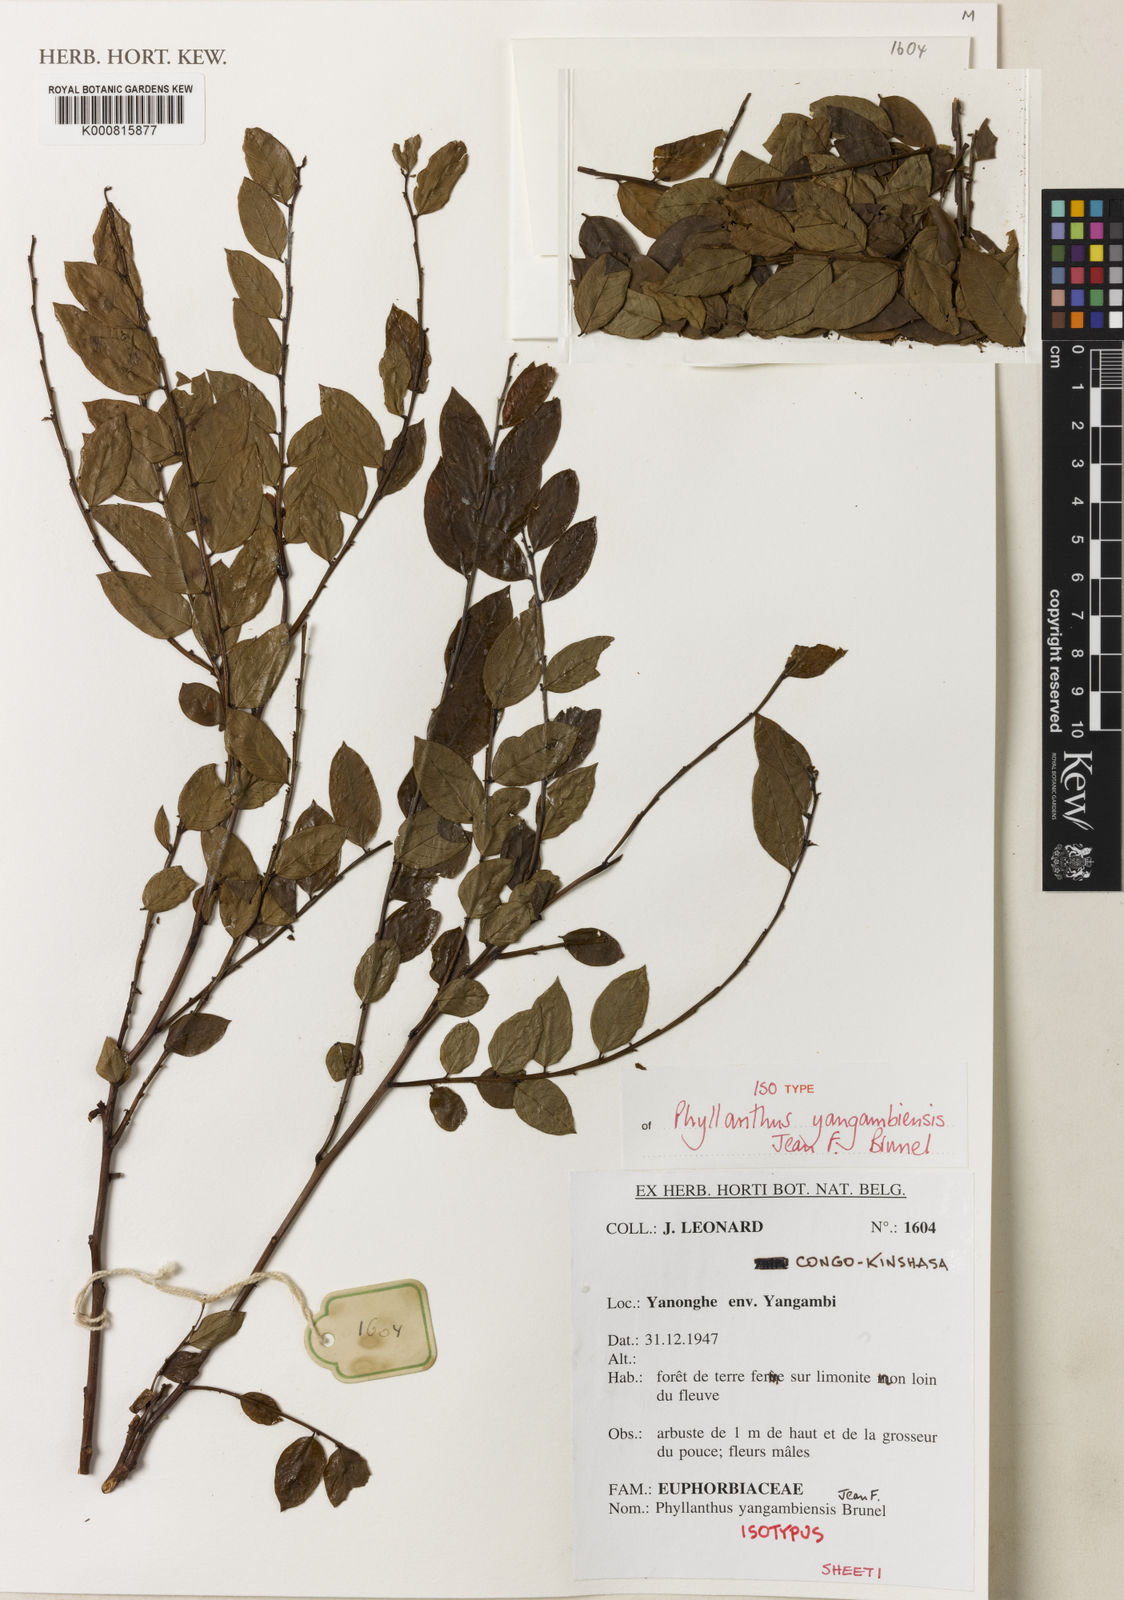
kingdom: Plantae
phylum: Tracheophyta
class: Magnoliopsida
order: Malpighiales
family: Phyllanthaceae
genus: Phyllanthus
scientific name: Phyllanthus yangambiensis
